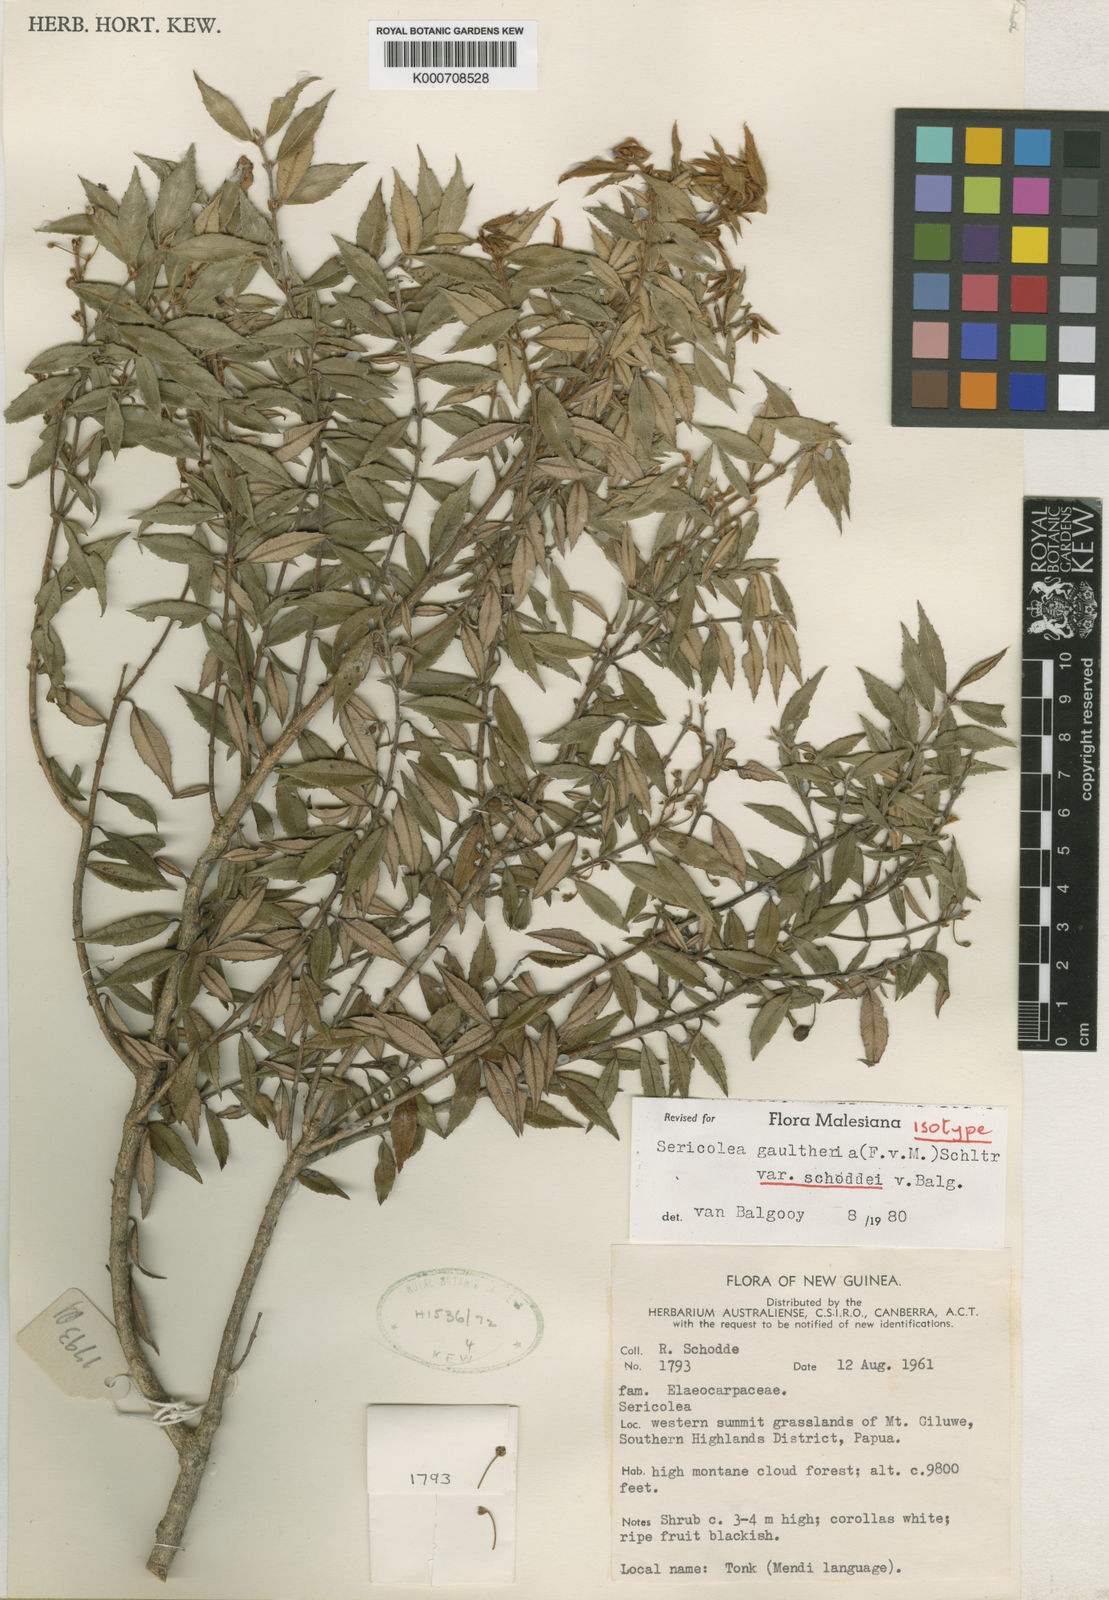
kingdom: Plantae
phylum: Tracheophyta
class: Magnoliopsida
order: Oxalidales
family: Elaeocarpaceae
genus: Sericolea
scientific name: Sericolea gaultheria
